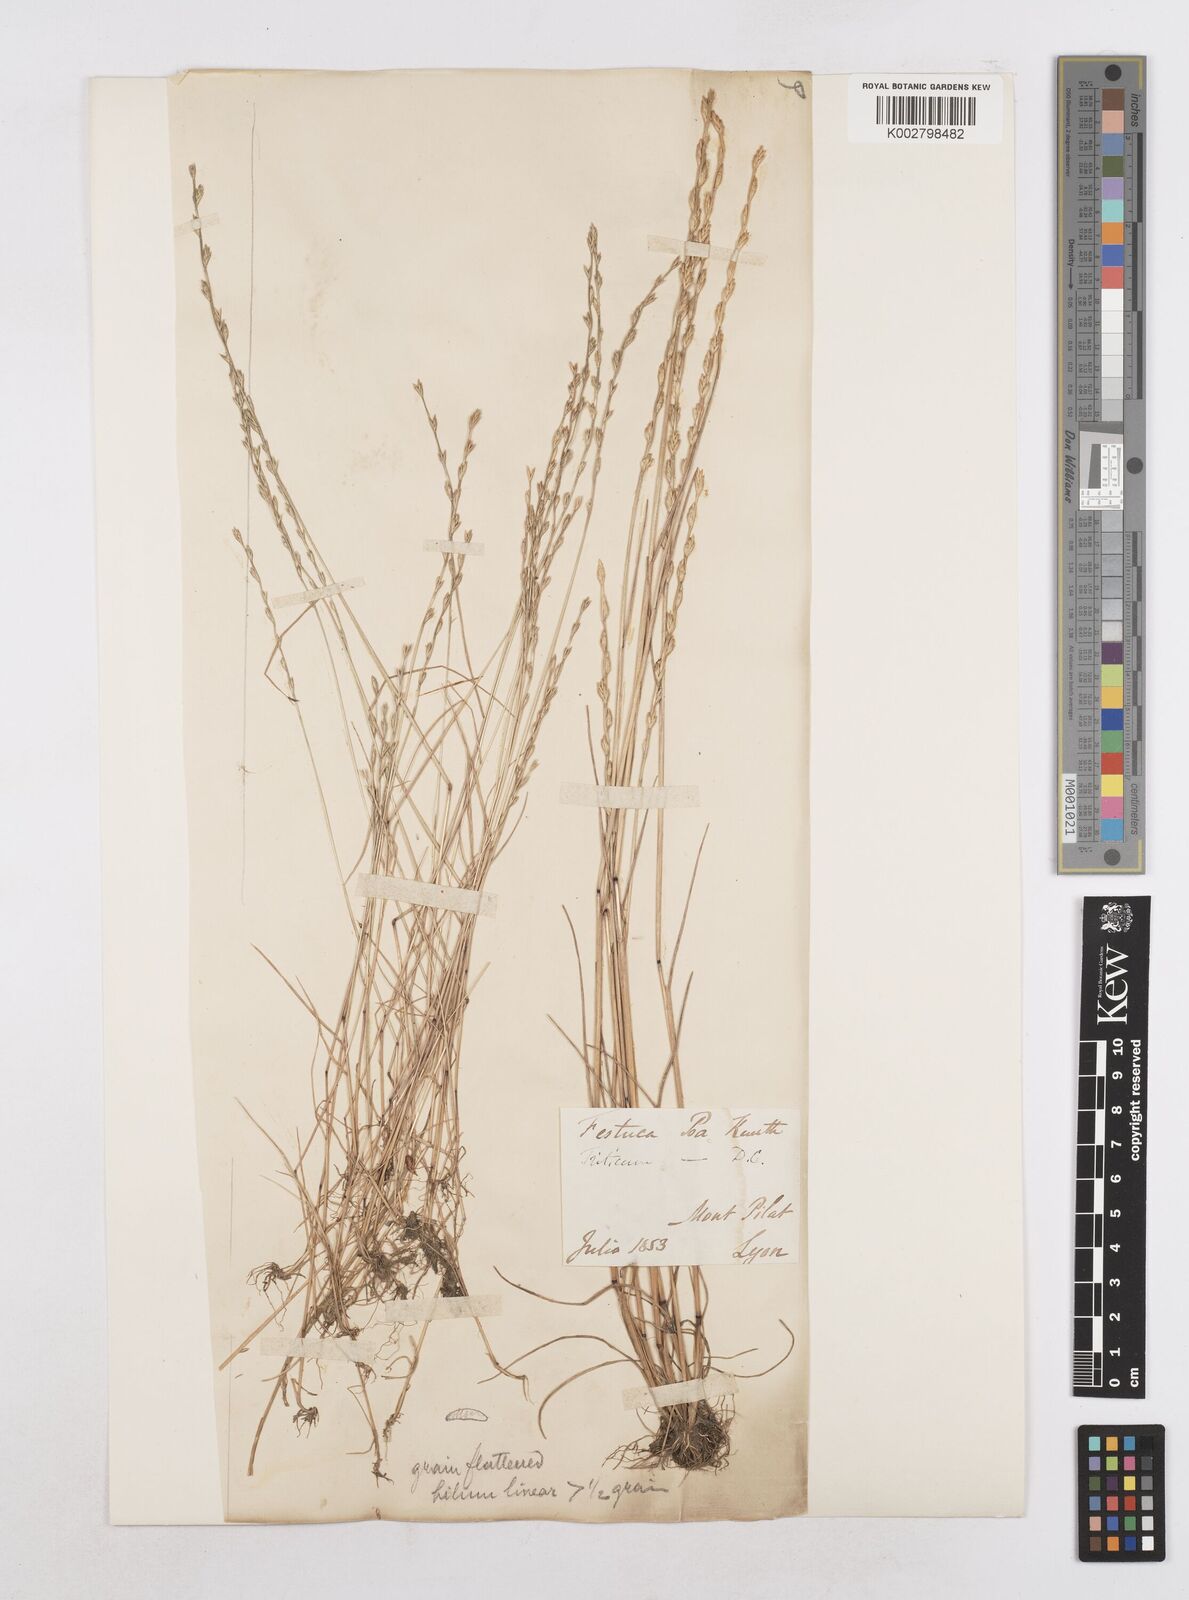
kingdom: Plantae
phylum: Tracheophyta
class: Liliopsida
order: Poales
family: Poaceae
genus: Festuca
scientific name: Festuca lachenalii
